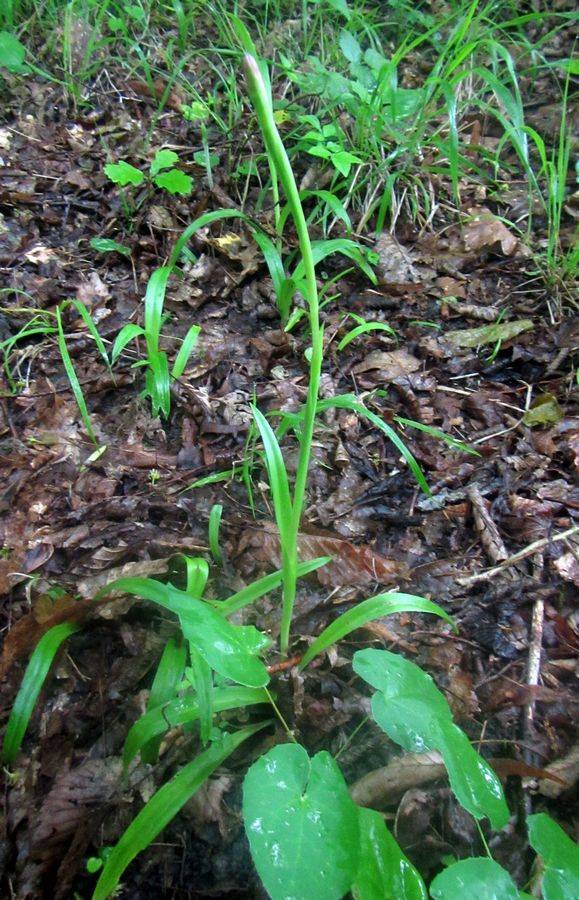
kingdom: Plantae
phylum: Tracheophyta
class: Liliopsida
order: Asparagales
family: Orchidaceae
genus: Ophrys
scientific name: Ophrys scolopax
